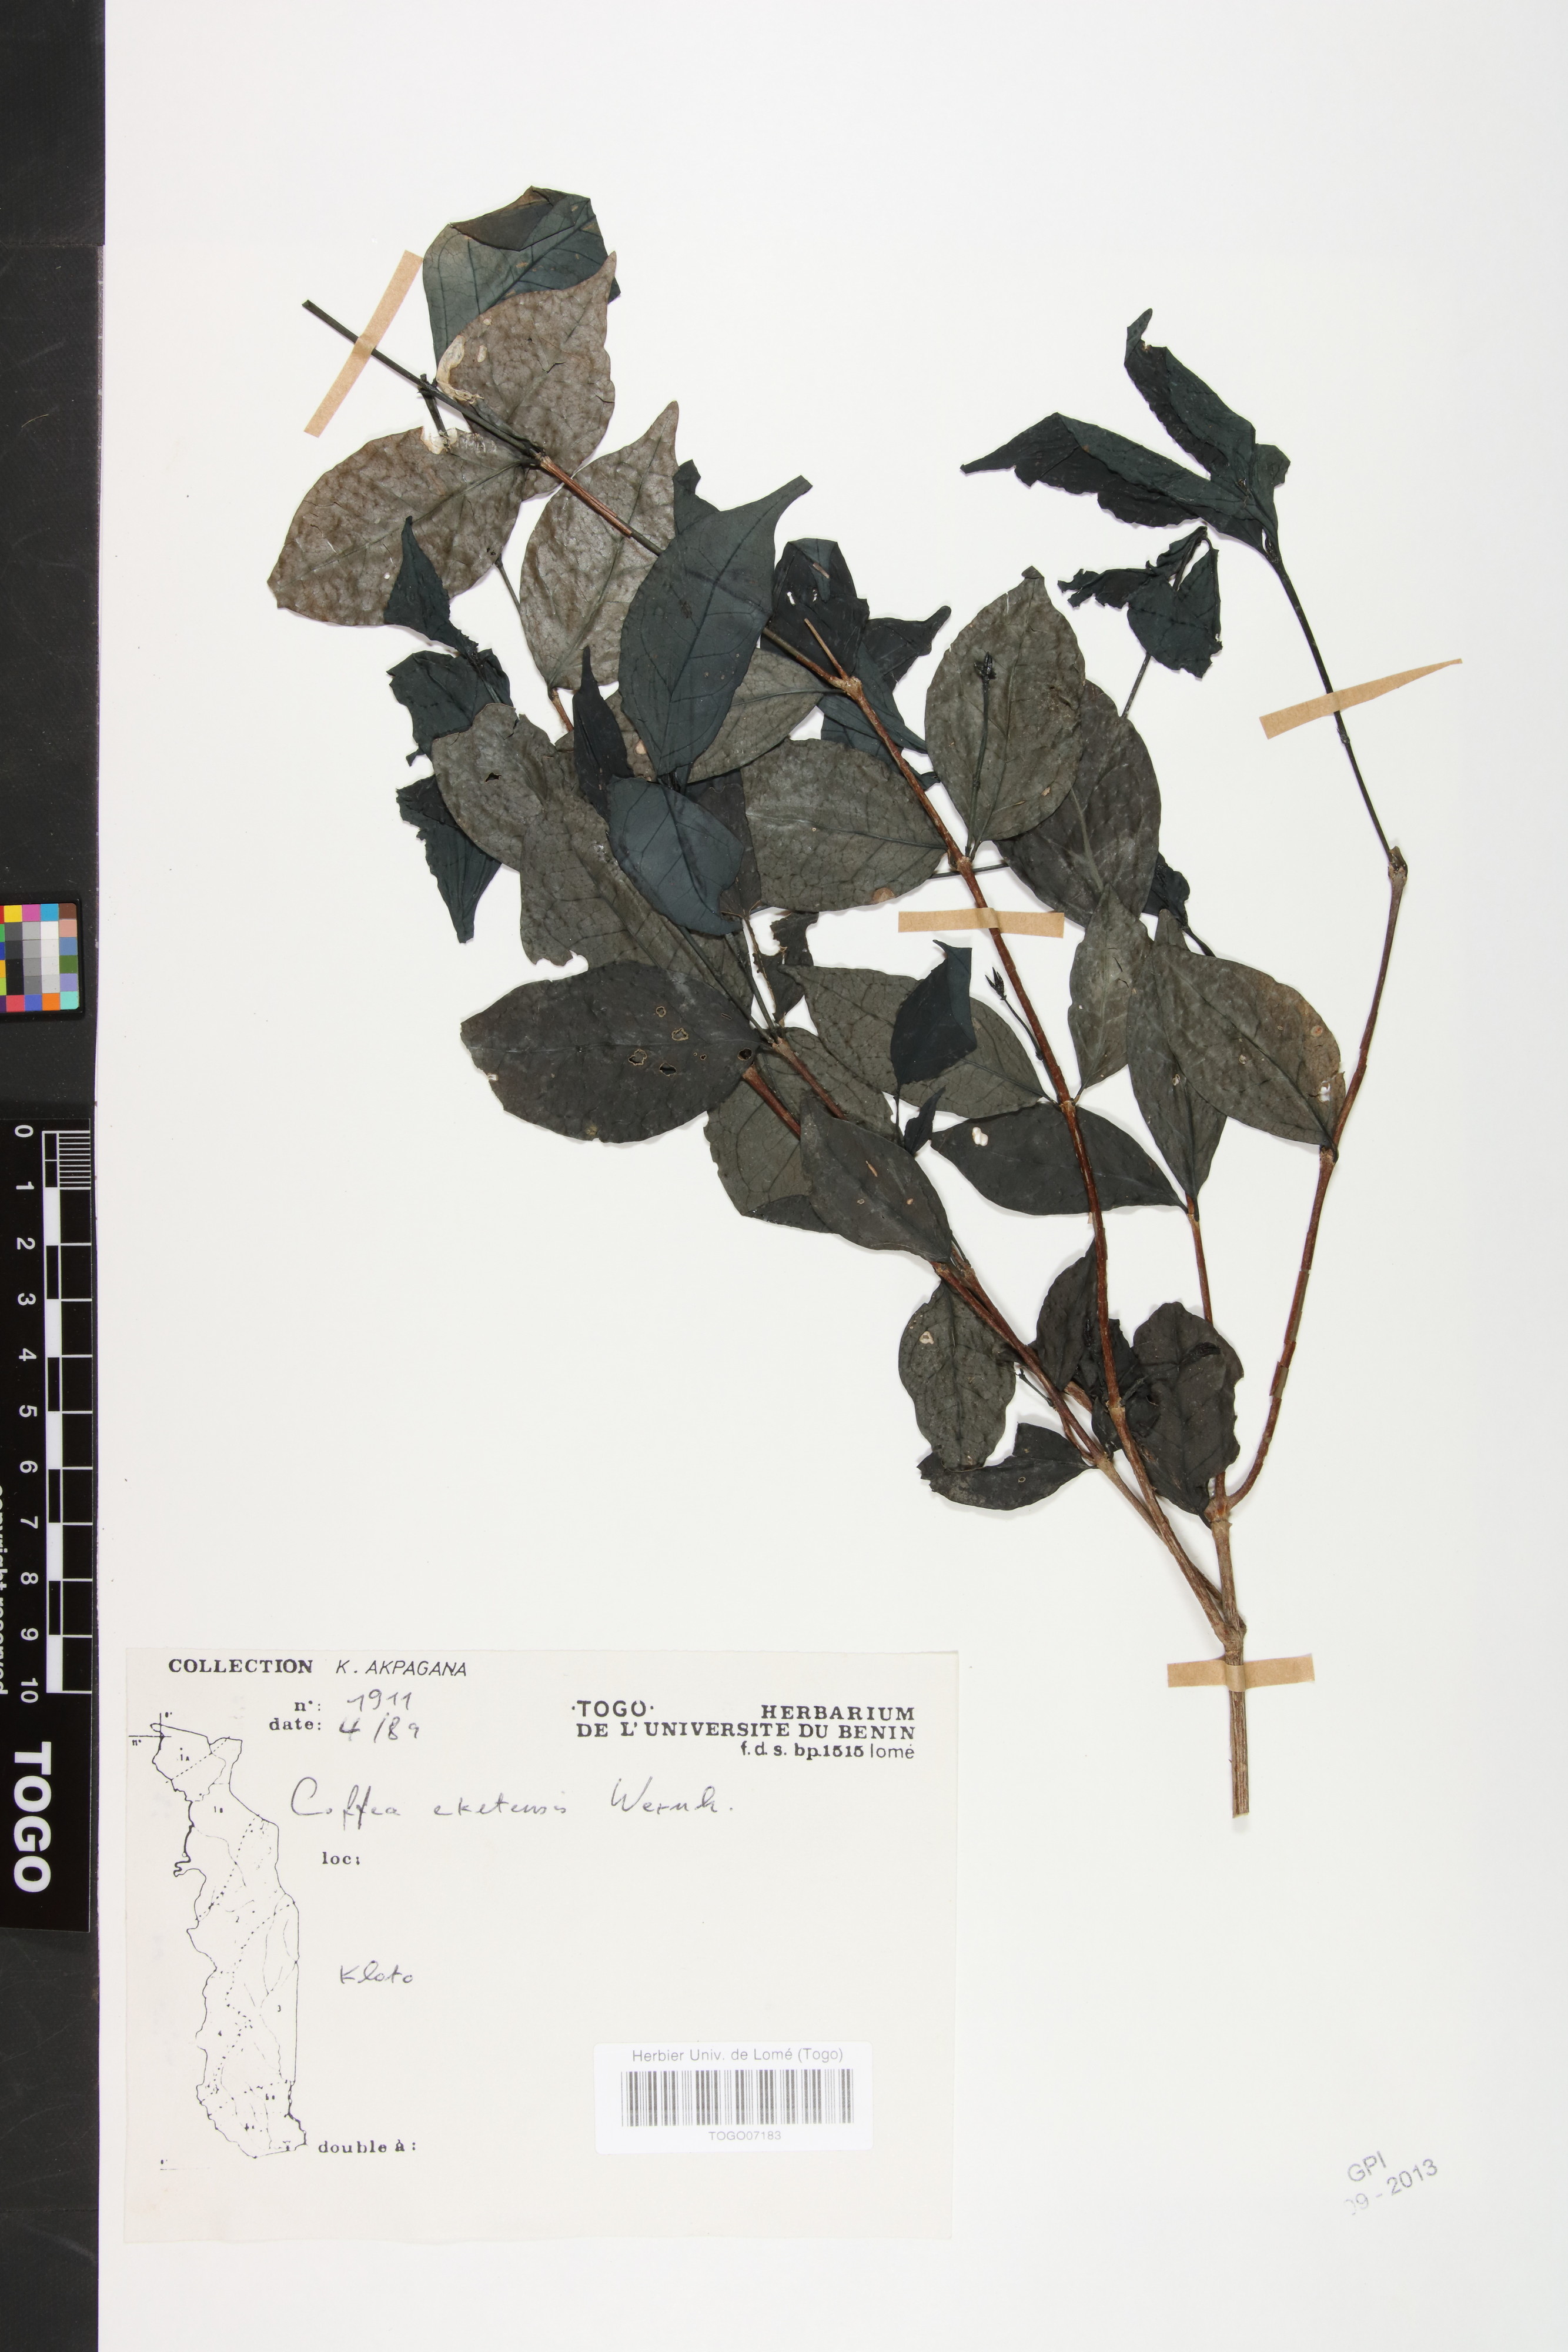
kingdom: Plantae
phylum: Tracheophyta
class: Magnoliopsida
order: Gentianales
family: Rubiaceae
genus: Argocoffeopsis
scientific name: Argocoffeopsis eketensis
